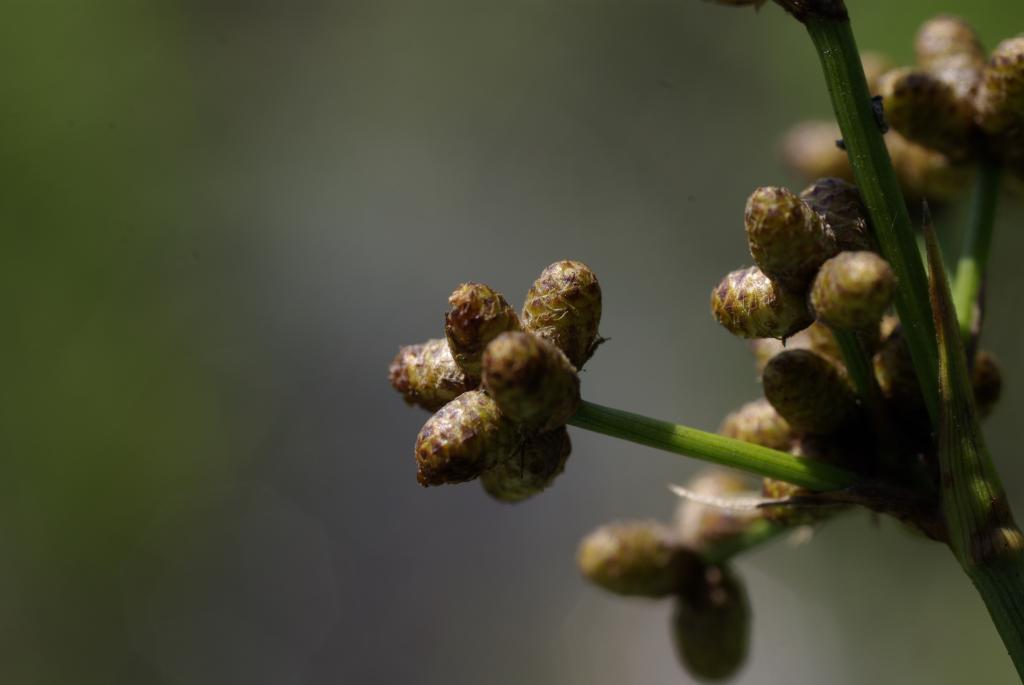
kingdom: Plantae
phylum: Tracheophyta
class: Liliopsida
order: Poales
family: Cyperaceae
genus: Scirpus
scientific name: Scirpus ternatanus
